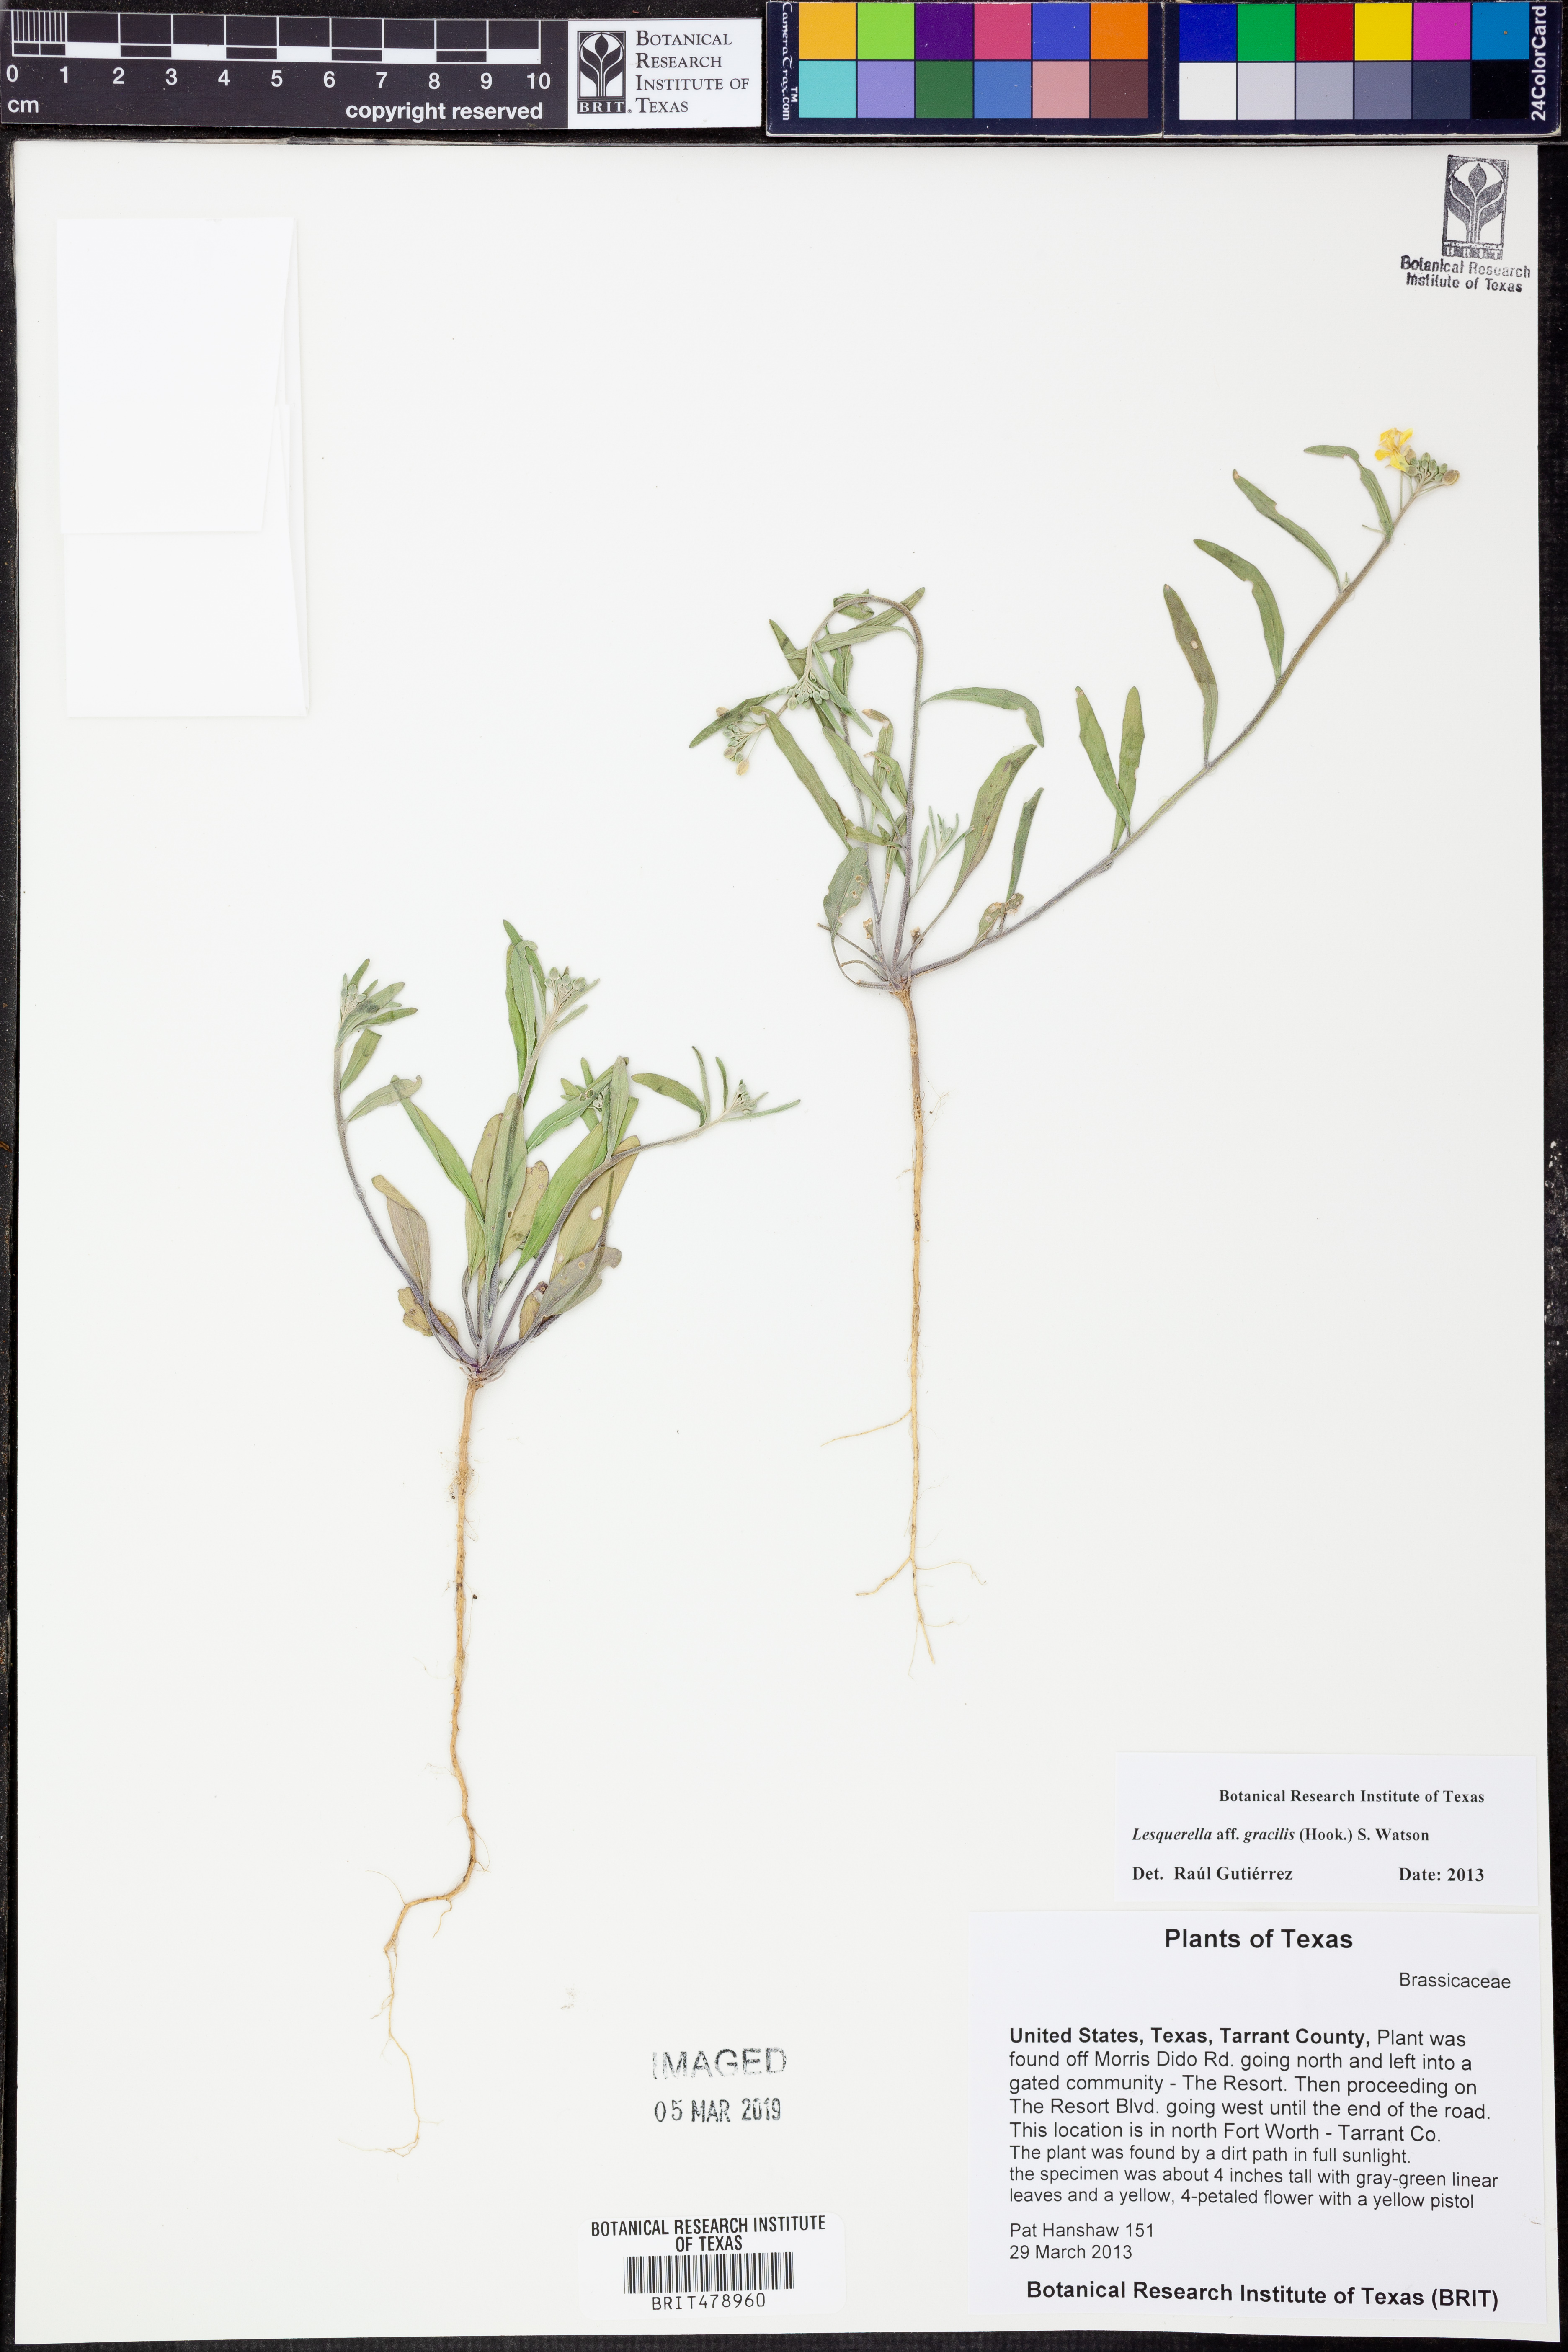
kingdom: Plantae
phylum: Tracheophyta
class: Magnoliopsida
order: Brassicales
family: Brassicaceae
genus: Physaria
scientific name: Physaria gracilis
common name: Spreading bladderpod
